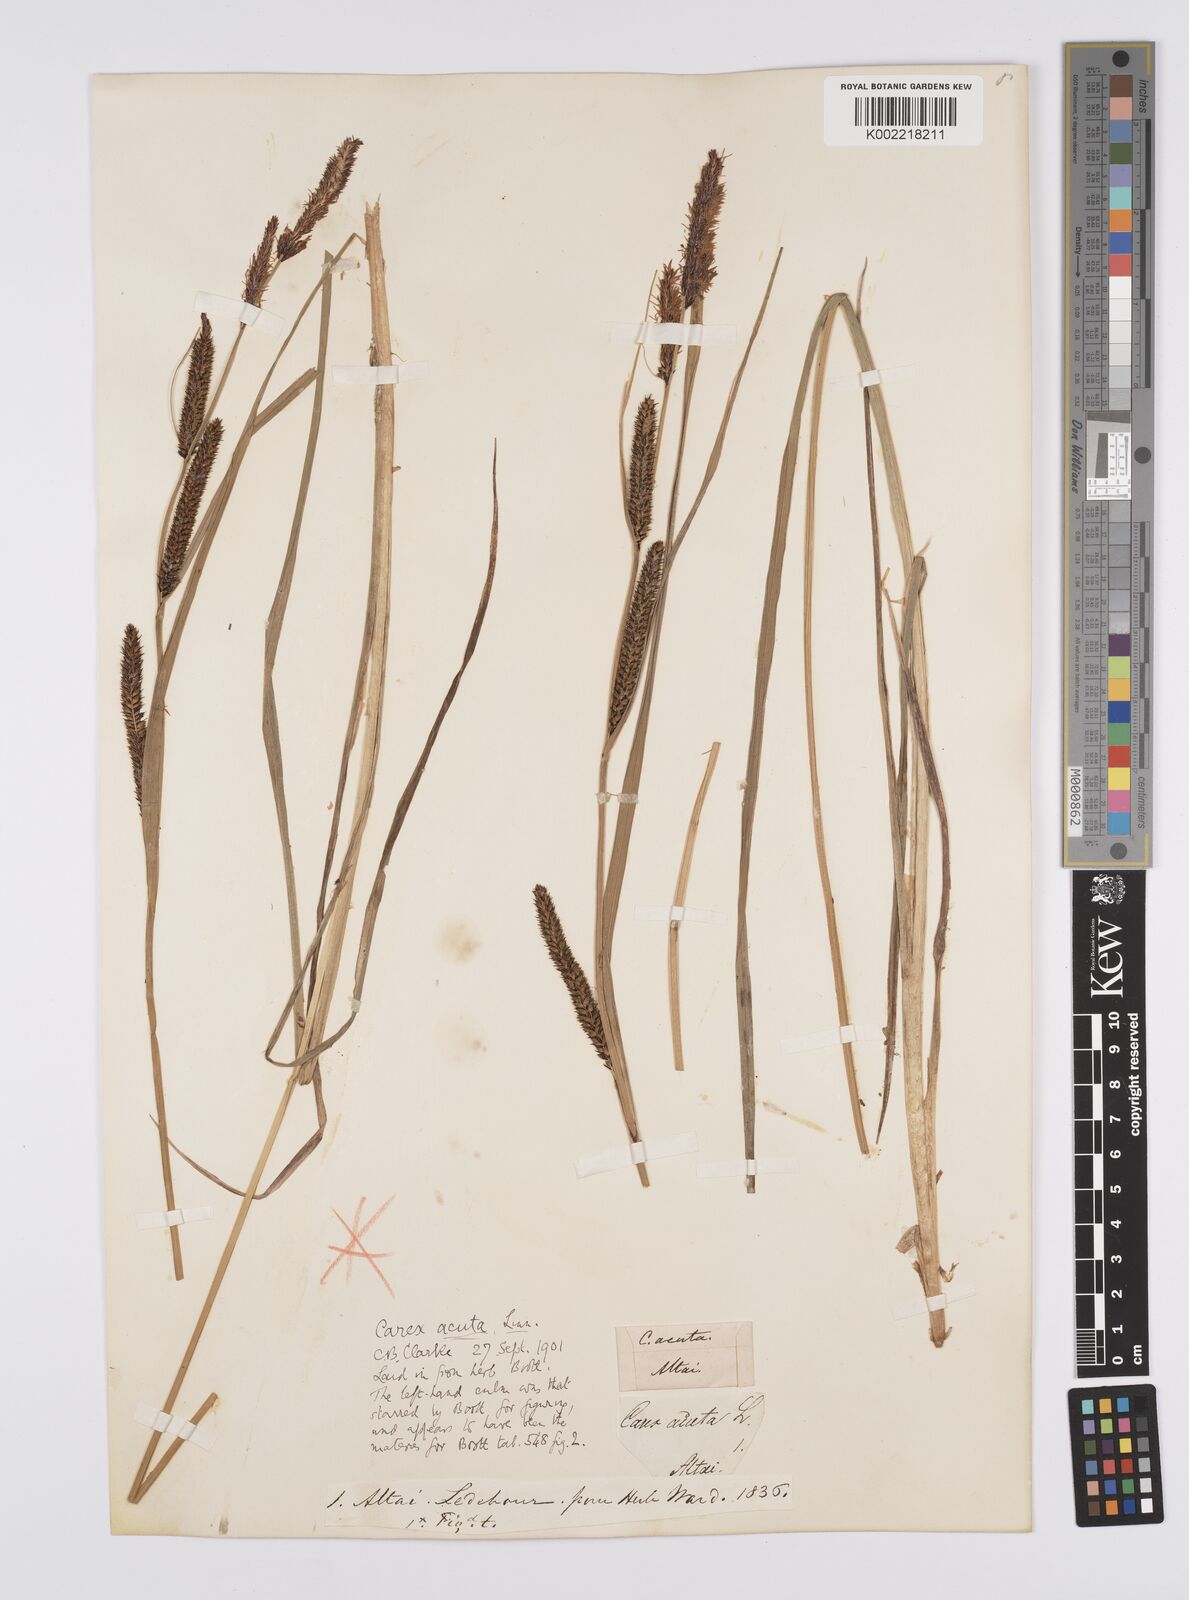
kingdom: Plantae
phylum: Tracheophyta
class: Liliopsida
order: Poales
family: Cyperaceae
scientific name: Cyperaceae
